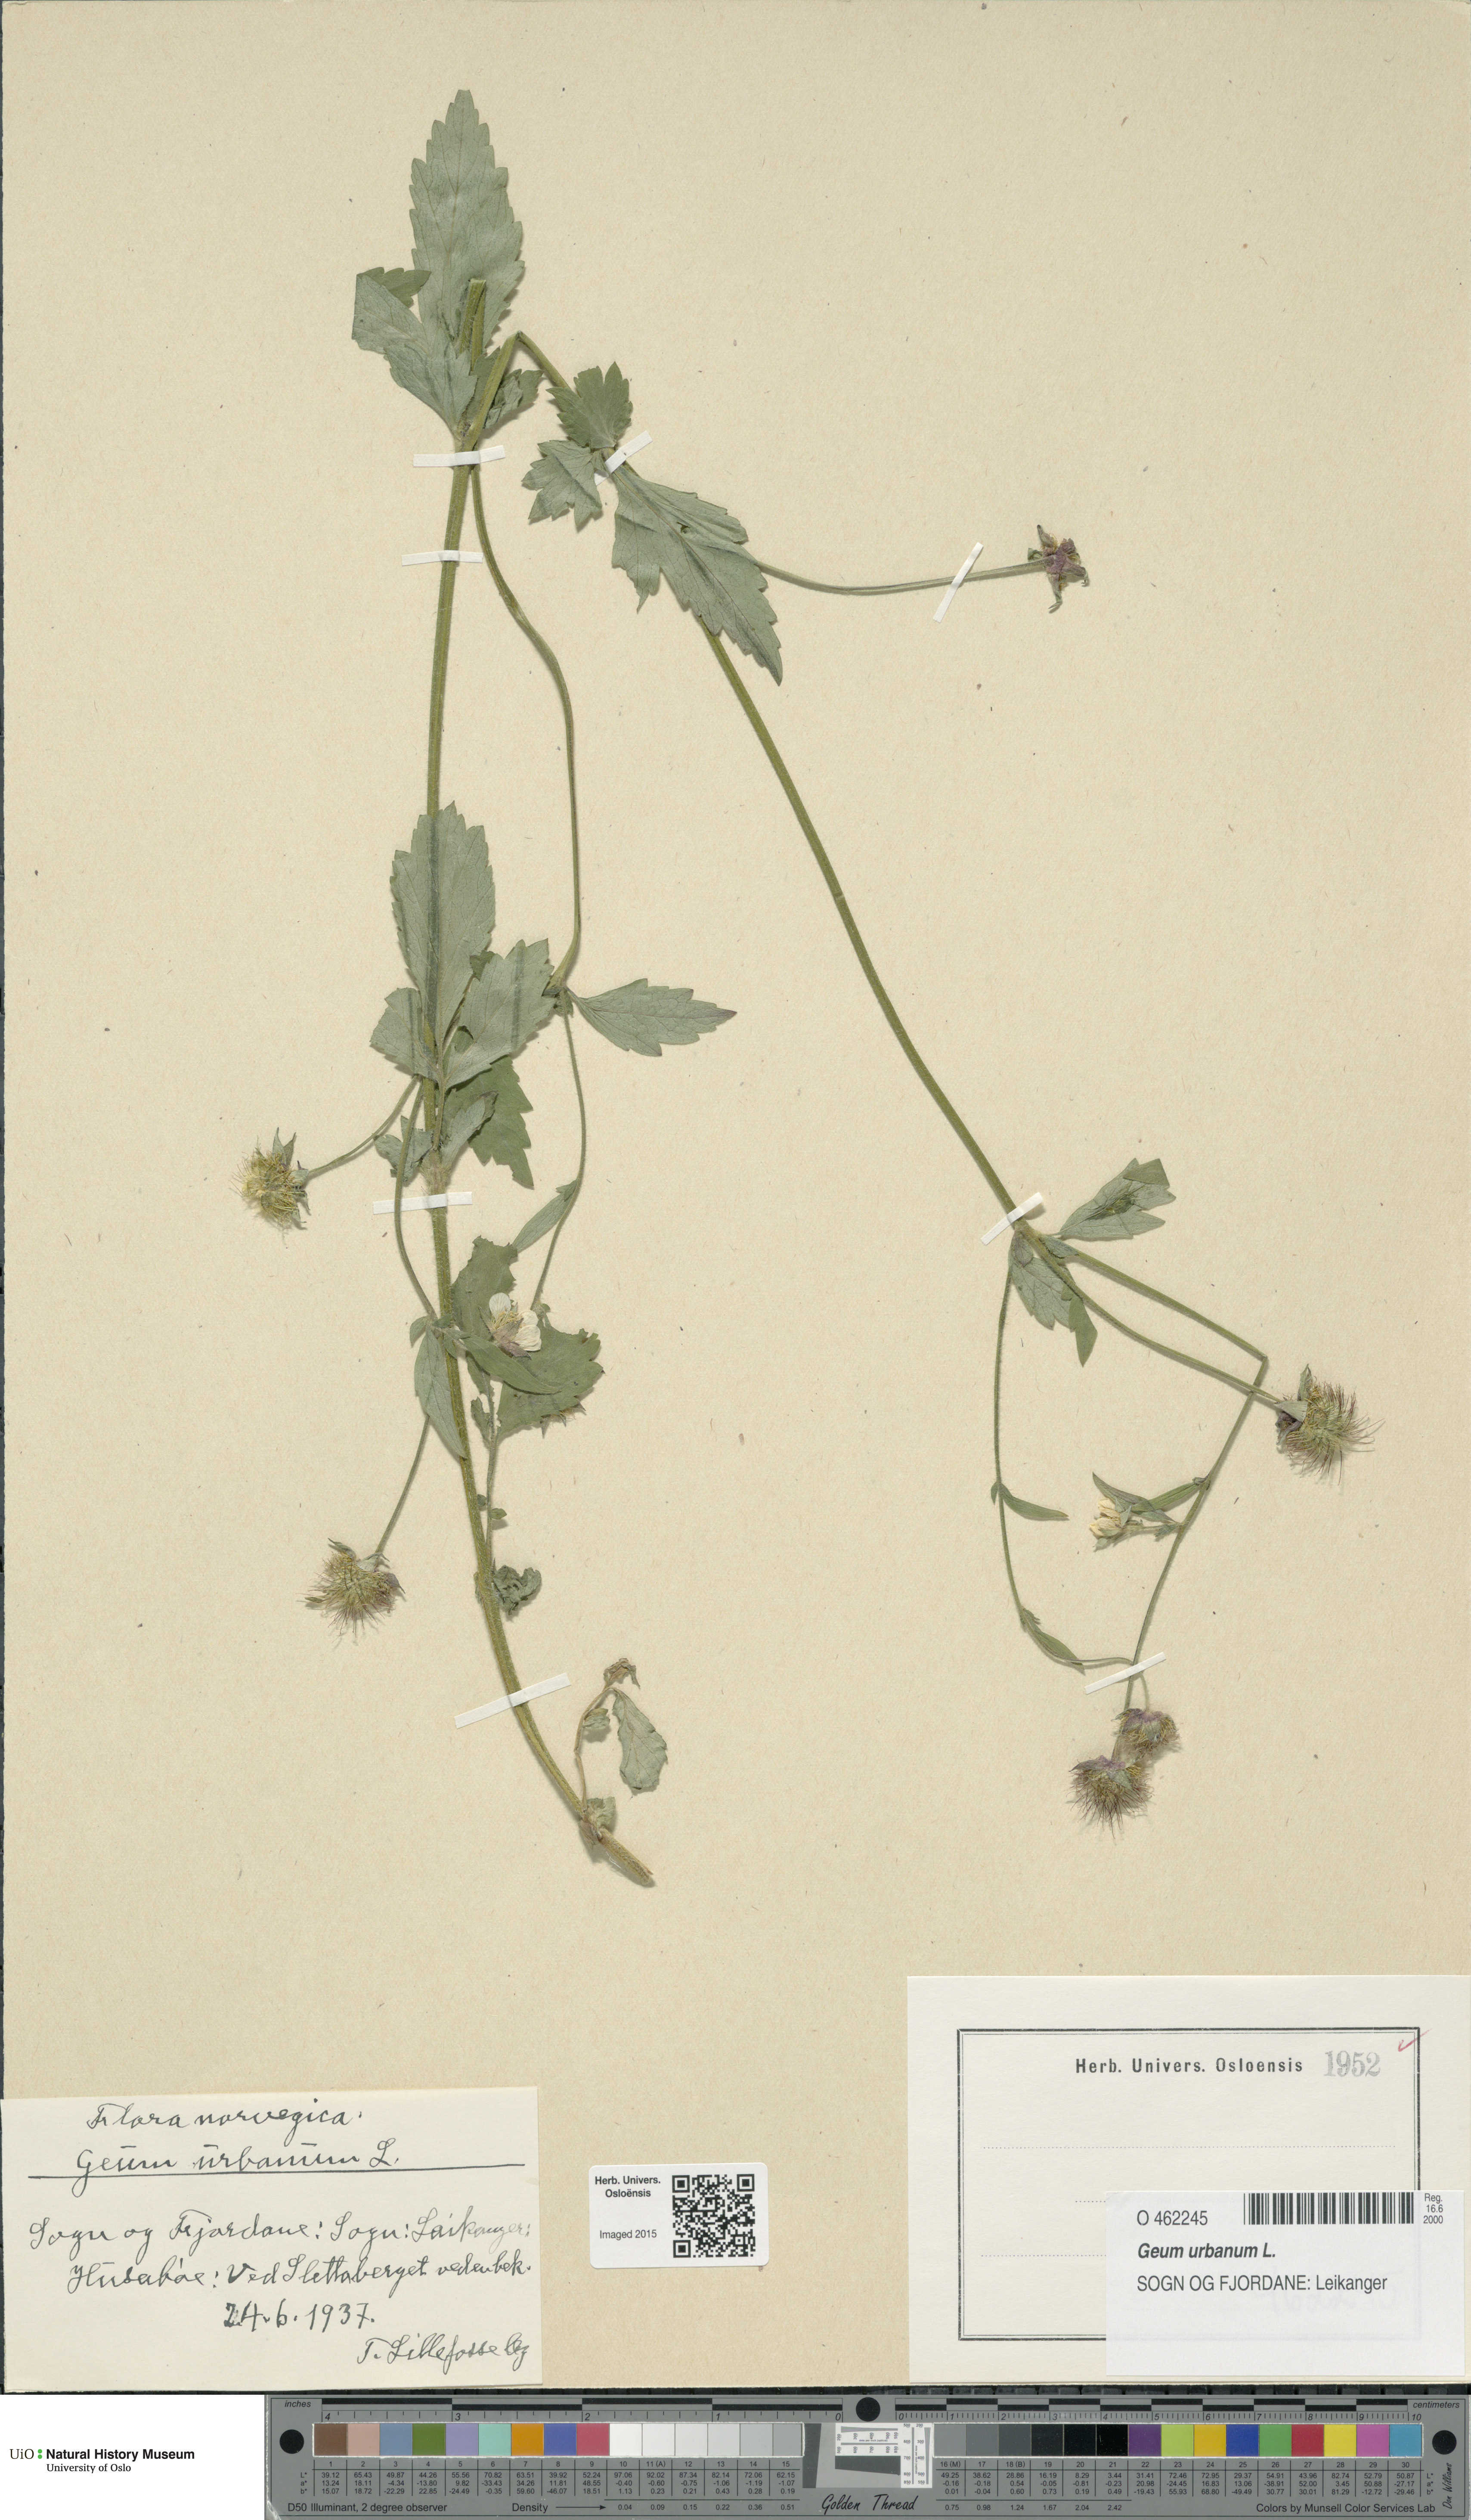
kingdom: Plantae
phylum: Tracheophyta
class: Magnoliopsida
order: Rosales
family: Rosaceae
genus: Geum
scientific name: Geum urbanum
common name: Wood avens
